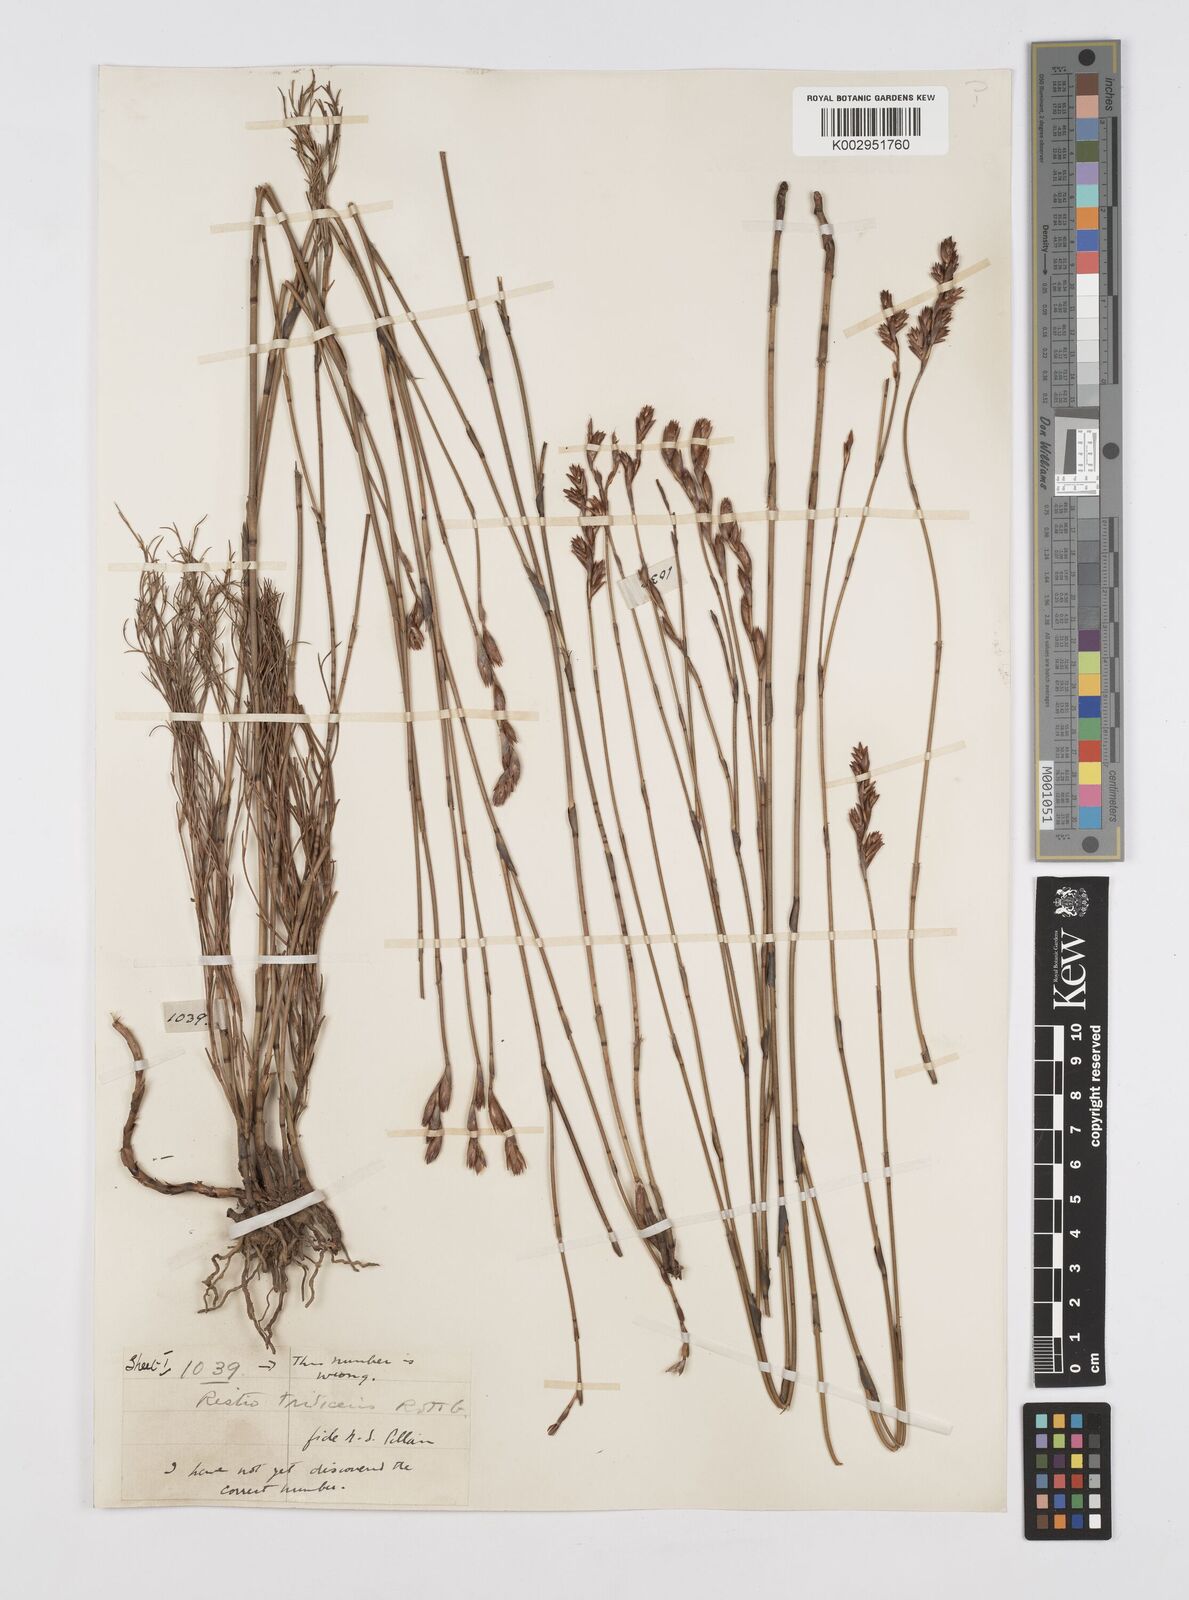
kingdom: Plantae
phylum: Tracheophyta
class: Liliopsida
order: Poales
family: Restionaceae
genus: Restio
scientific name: Restio triticeus
